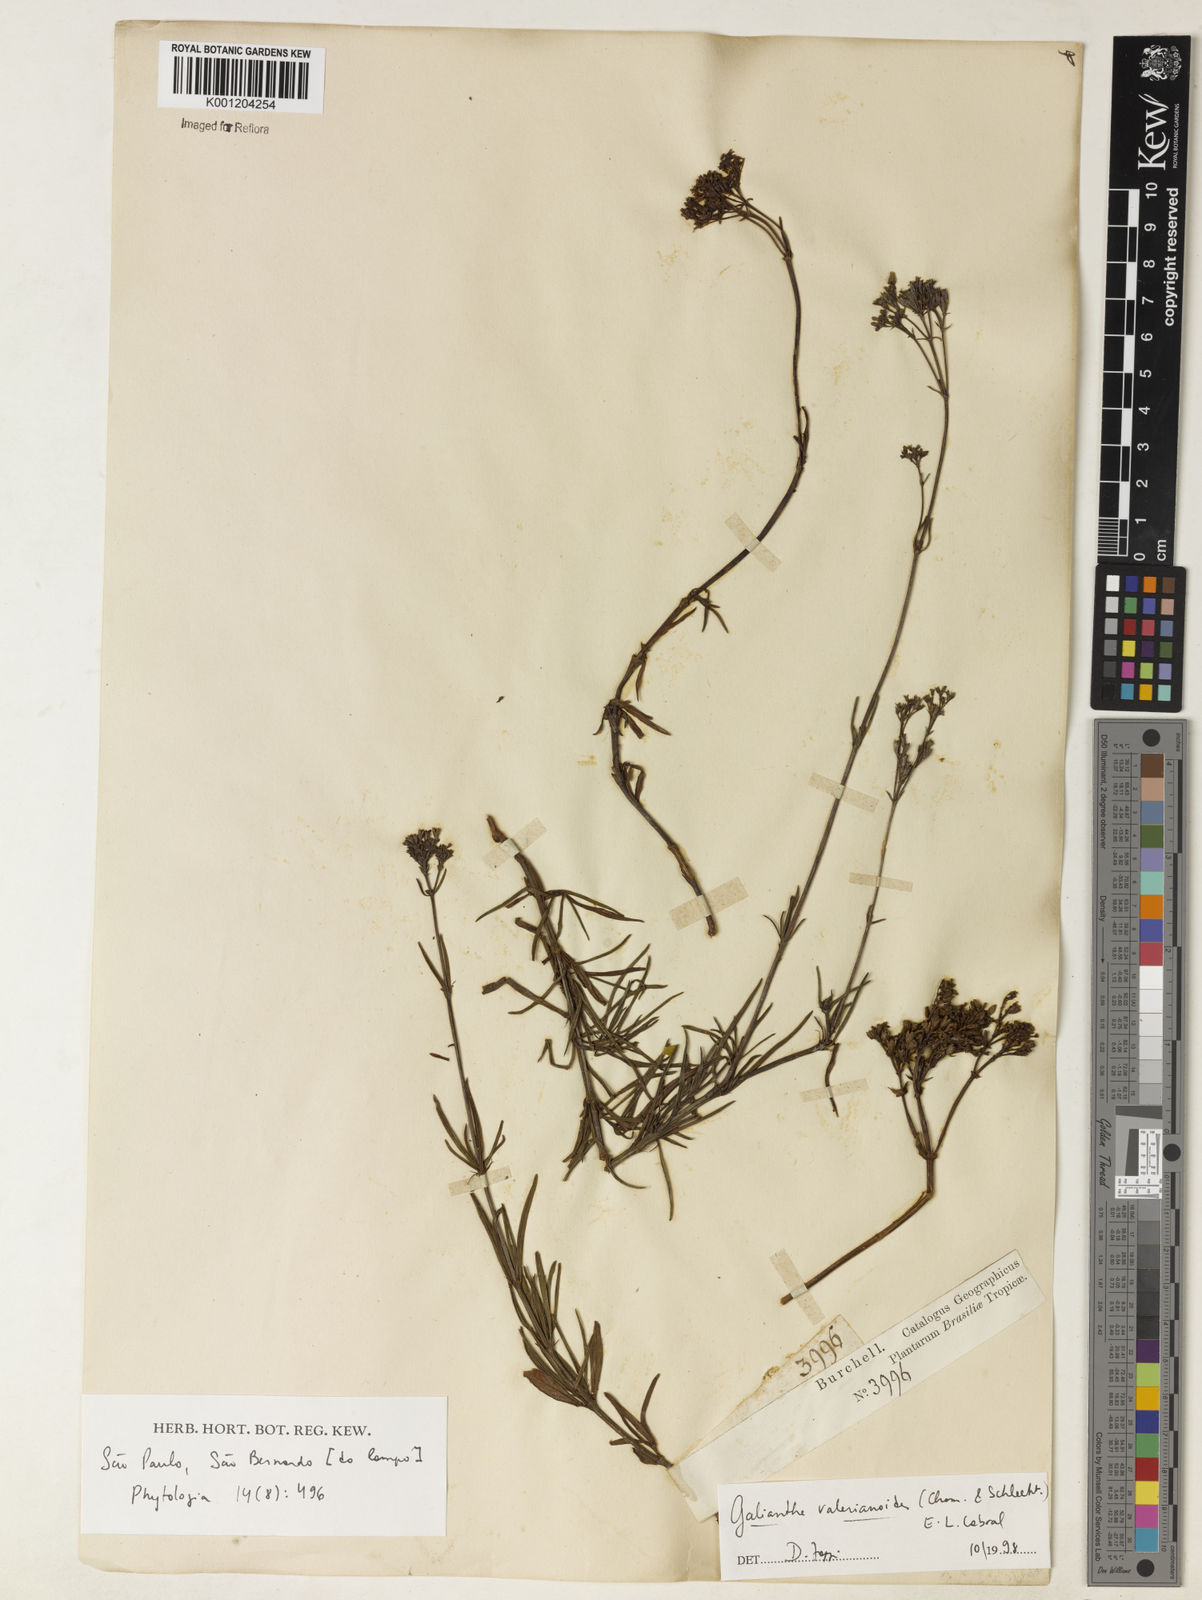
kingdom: Plantae
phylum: Tracheophyta
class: Magnoliopsida
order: Gentianales
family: Rubiaceae
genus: Galianthe
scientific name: Galianthe valerianoides
